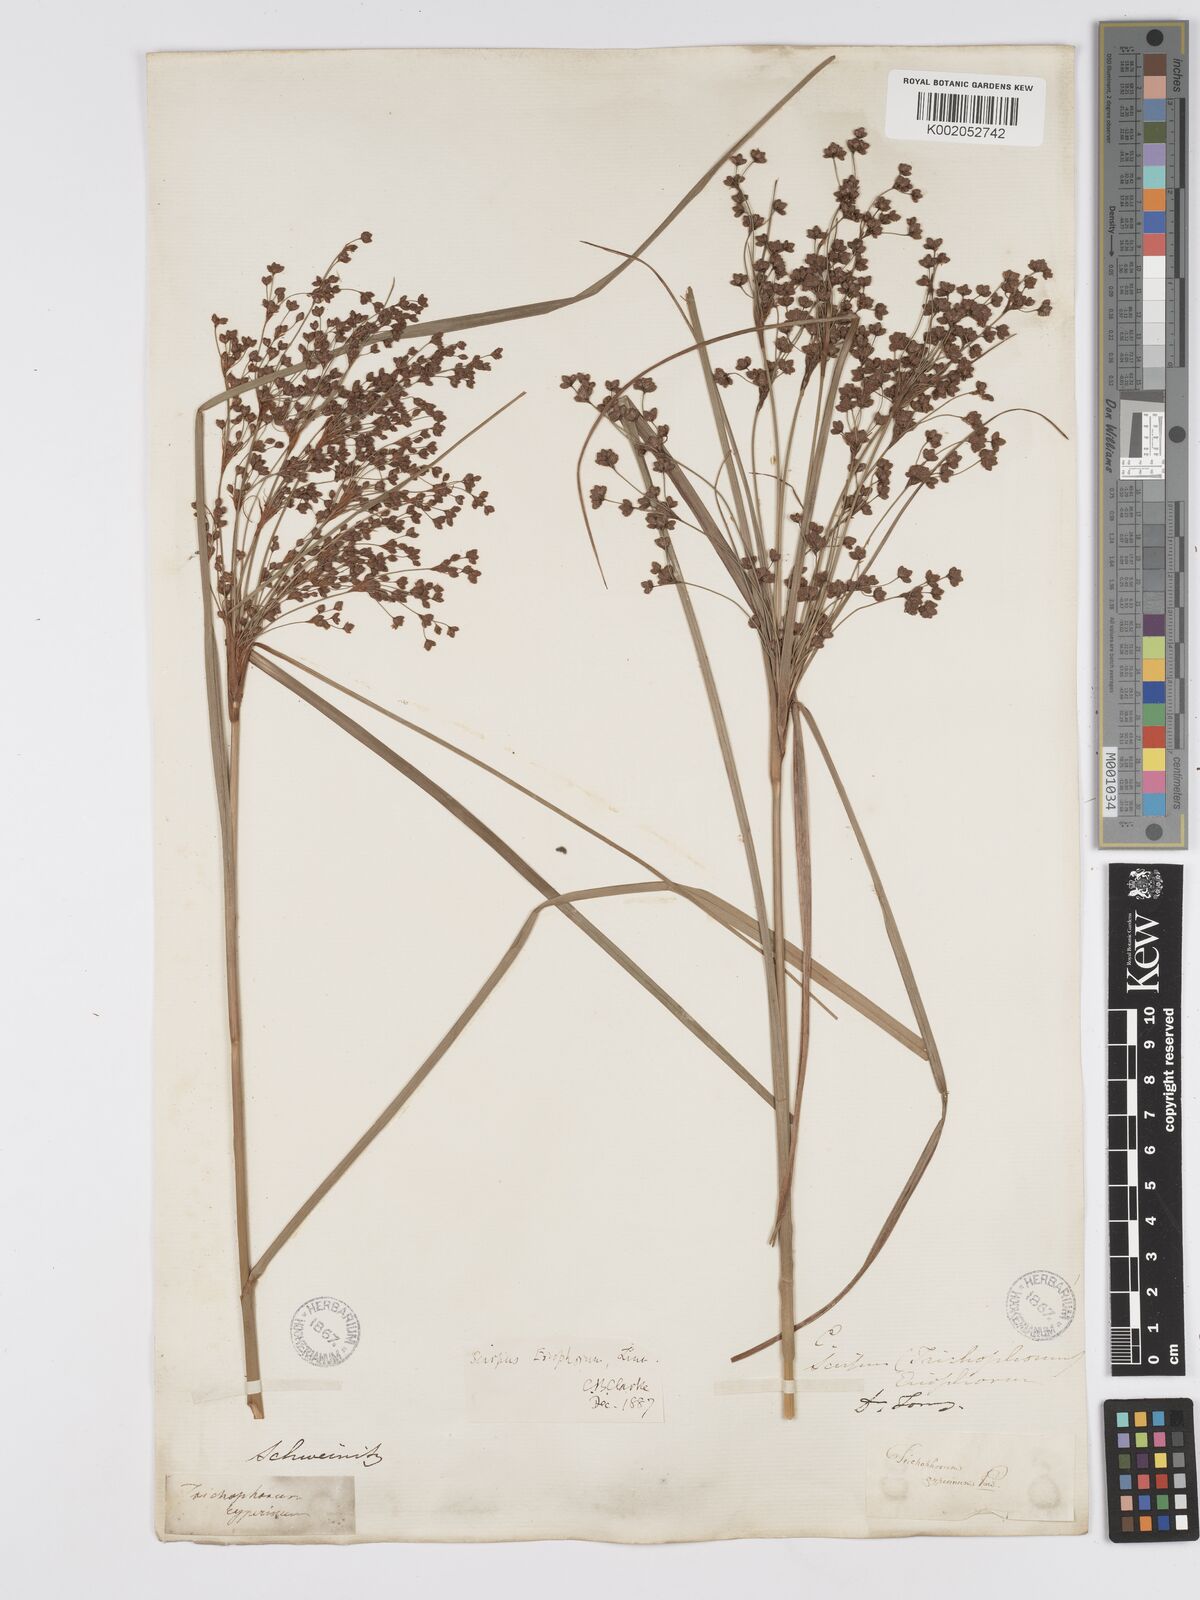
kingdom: Plantae
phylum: Tracheophyta
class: Liliopsida
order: Poales
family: Cyperaceae
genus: Scirpus
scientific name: Scirpus cyperinus
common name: Black-sheathed bulrush
